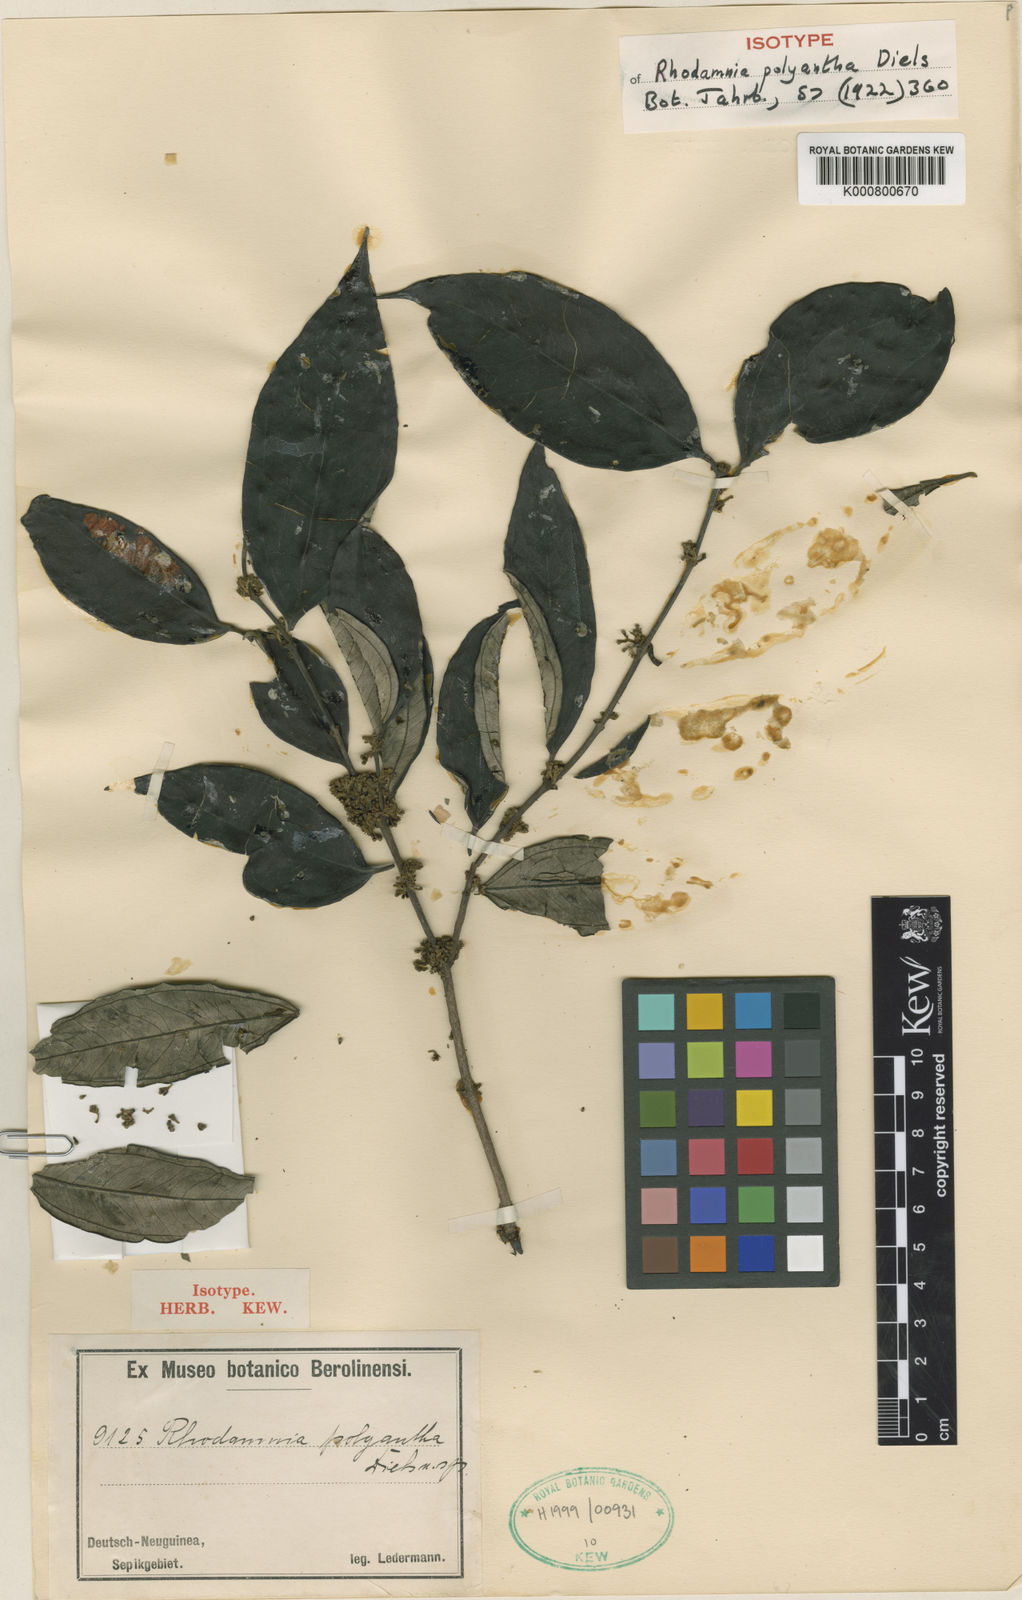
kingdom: Plantae
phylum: Tracheophyta
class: Magnoliopsida
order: Myrtales
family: Myrtaceae
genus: Rhodamnia
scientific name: Rhodamnia latifolia
